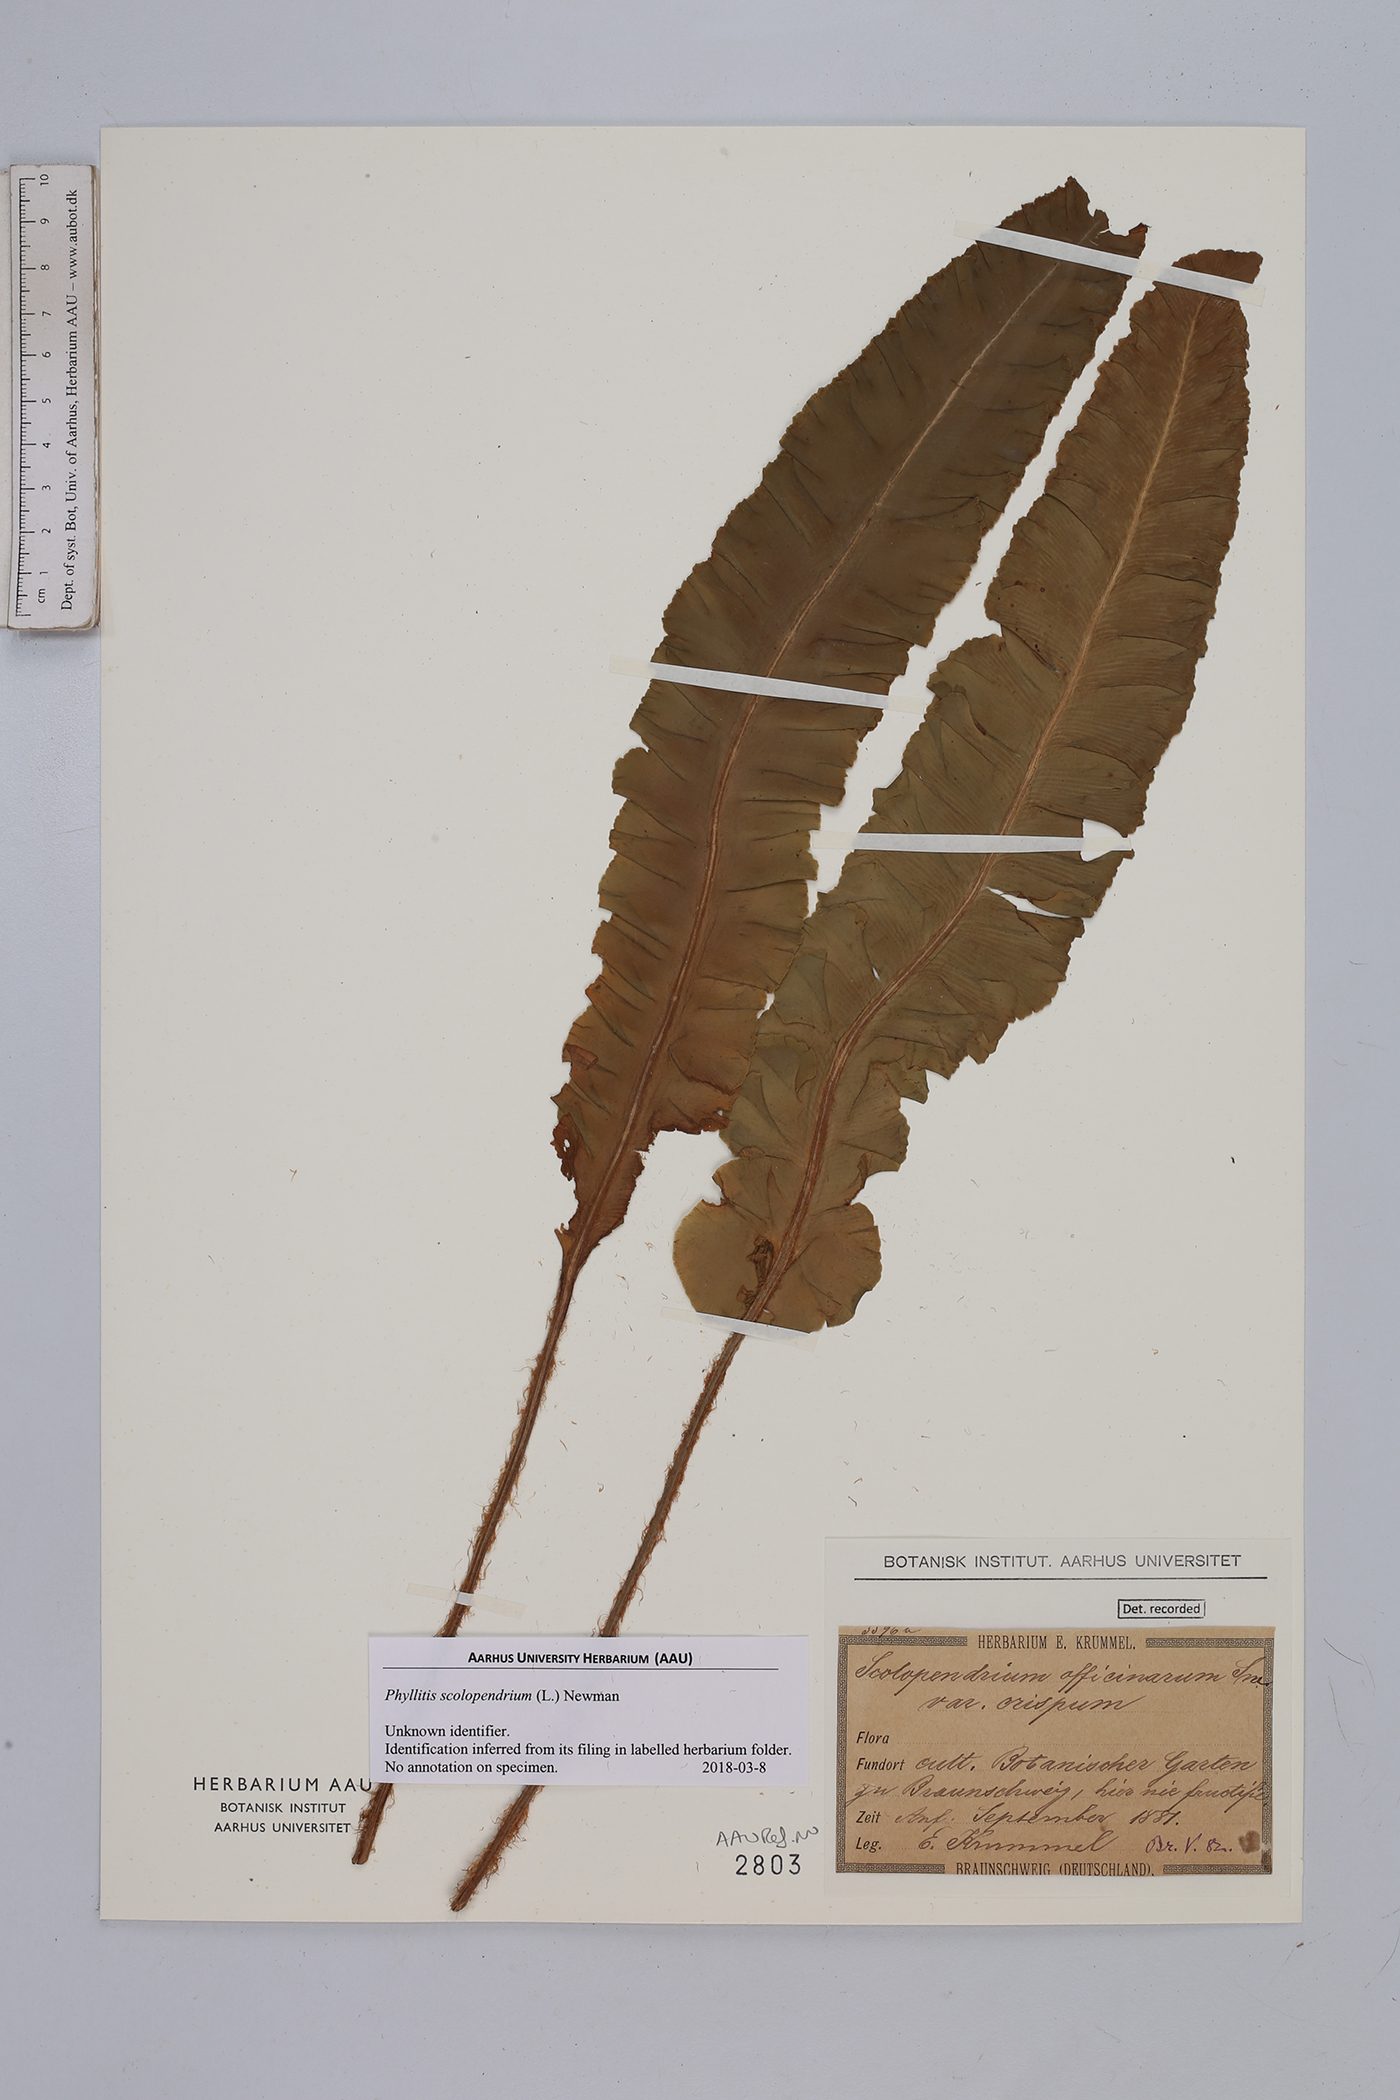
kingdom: Plantae
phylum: Tracheophyta
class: Polypodiopsida
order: Polypodiales
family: Aspleniaceae
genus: Asplenium
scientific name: Asplenium scolopendrium
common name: Hart's-tongue fern
